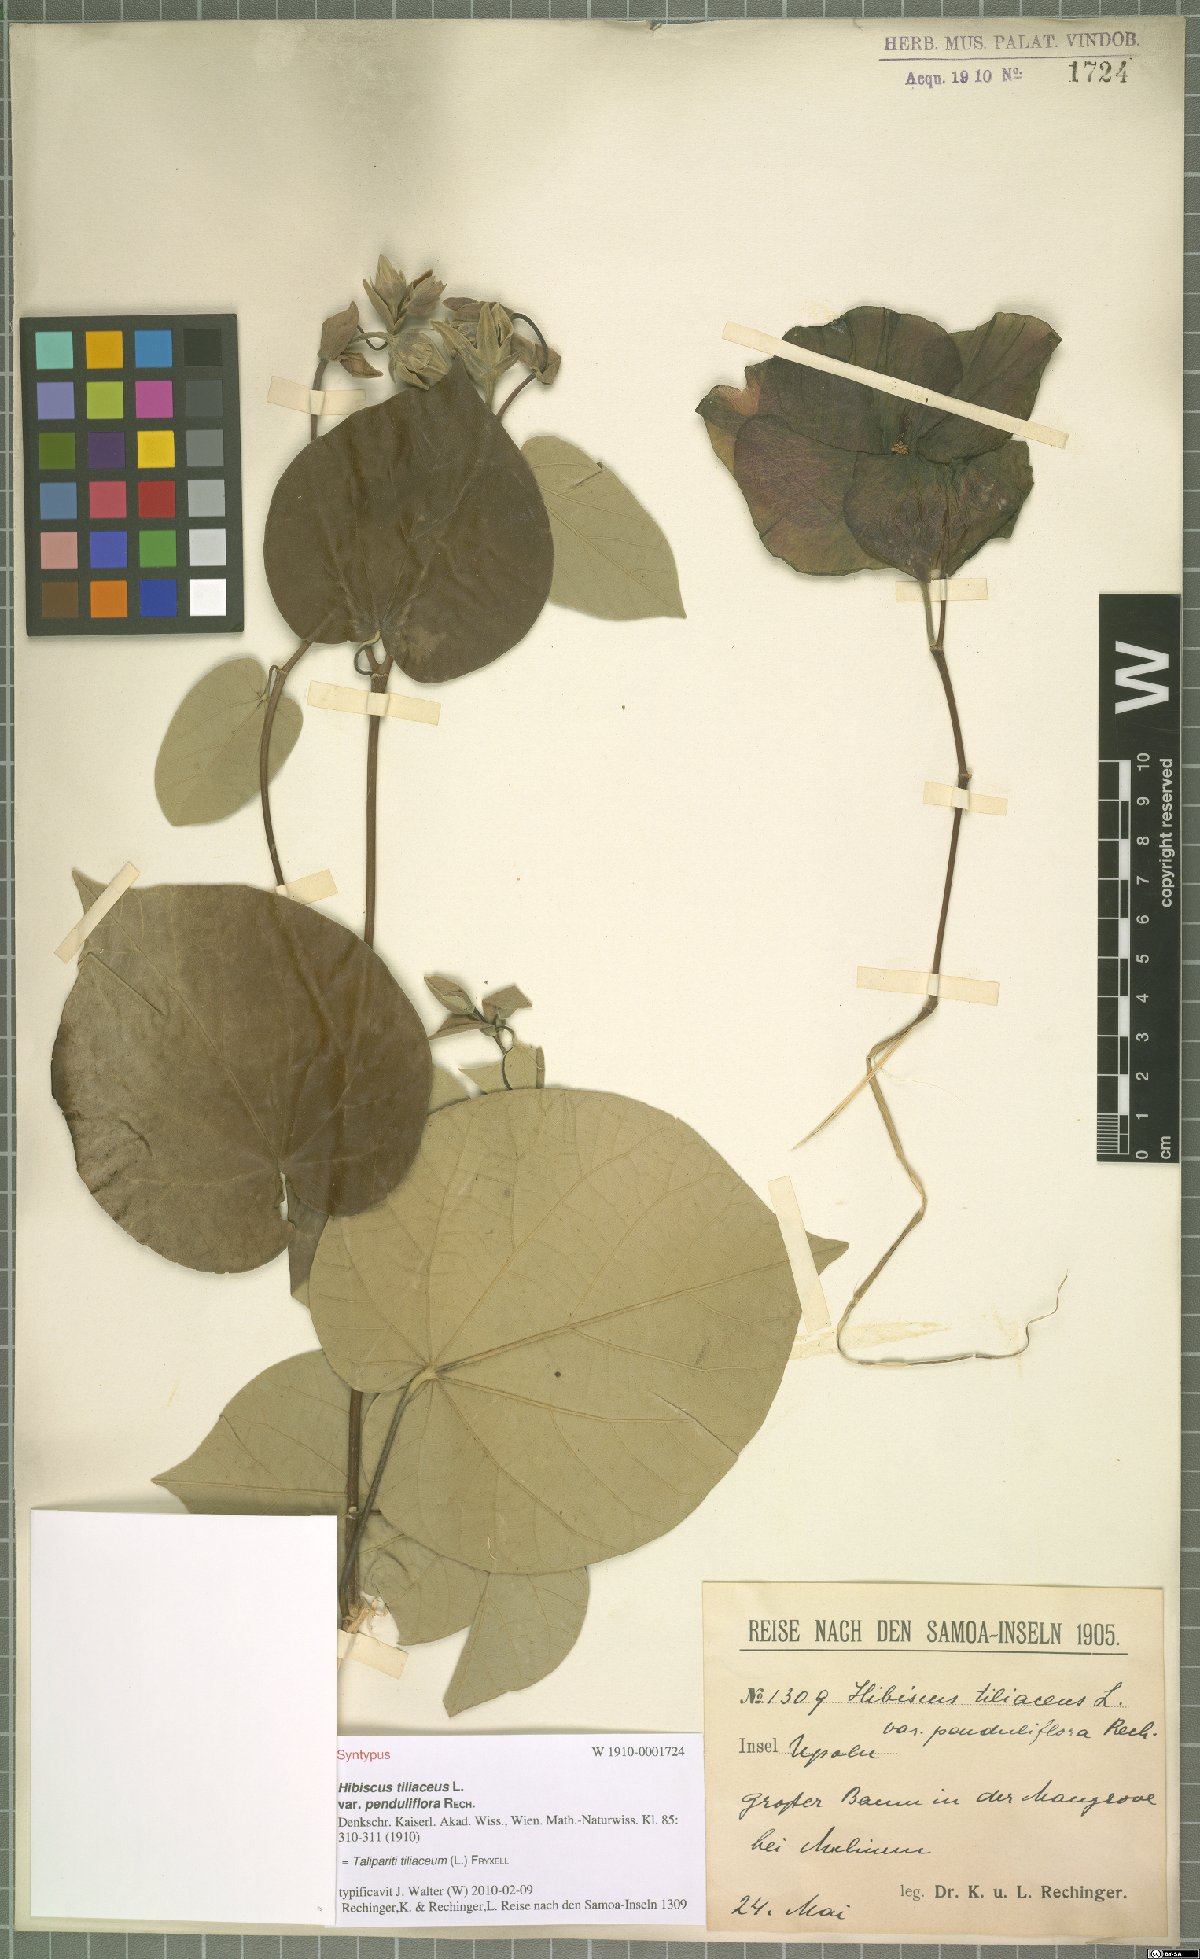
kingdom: Plantae
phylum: Tracheophyta
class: Magnoliopsida
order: Malvales
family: Malvaceae
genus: Talipariti
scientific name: Talipariti tiliaceum
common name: Sea hibiscus
